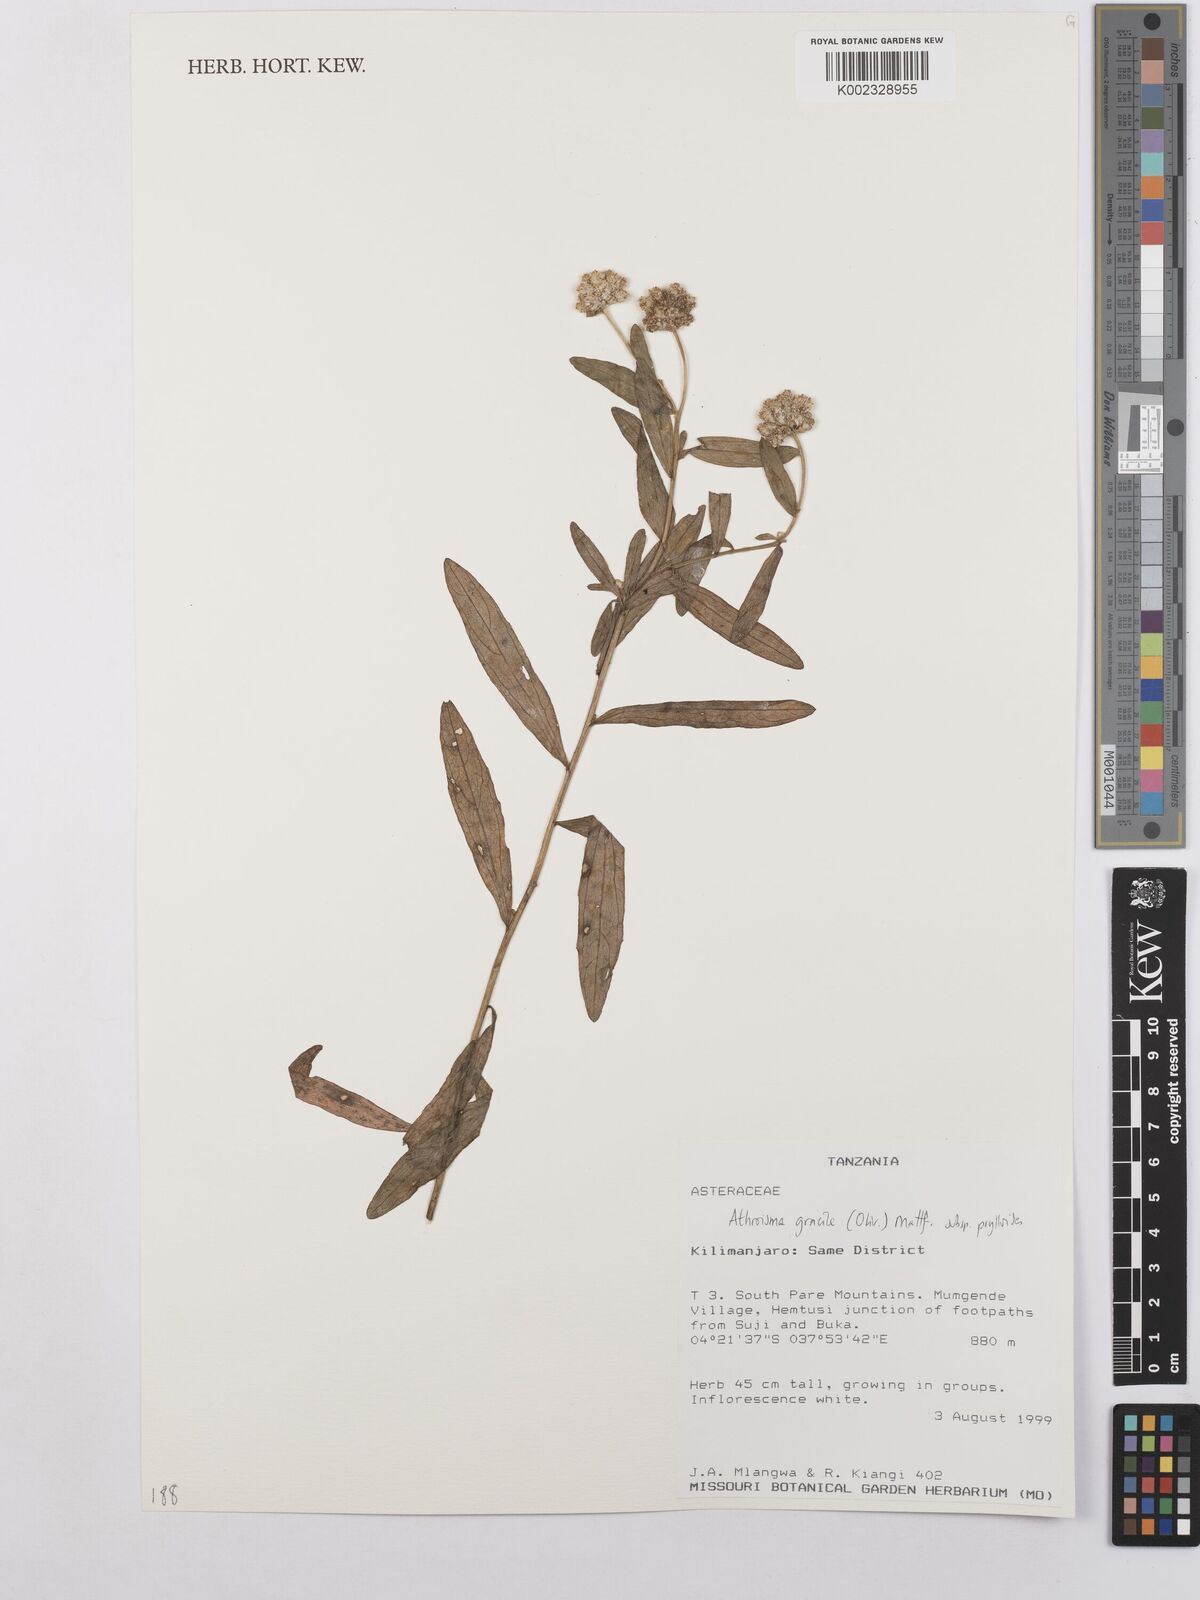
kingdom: Plantae
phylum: Tracheophyta
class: Magnoliopsida
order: Asterales
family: Asteraceae
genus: Athroisma
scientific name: Athroisma gracile
